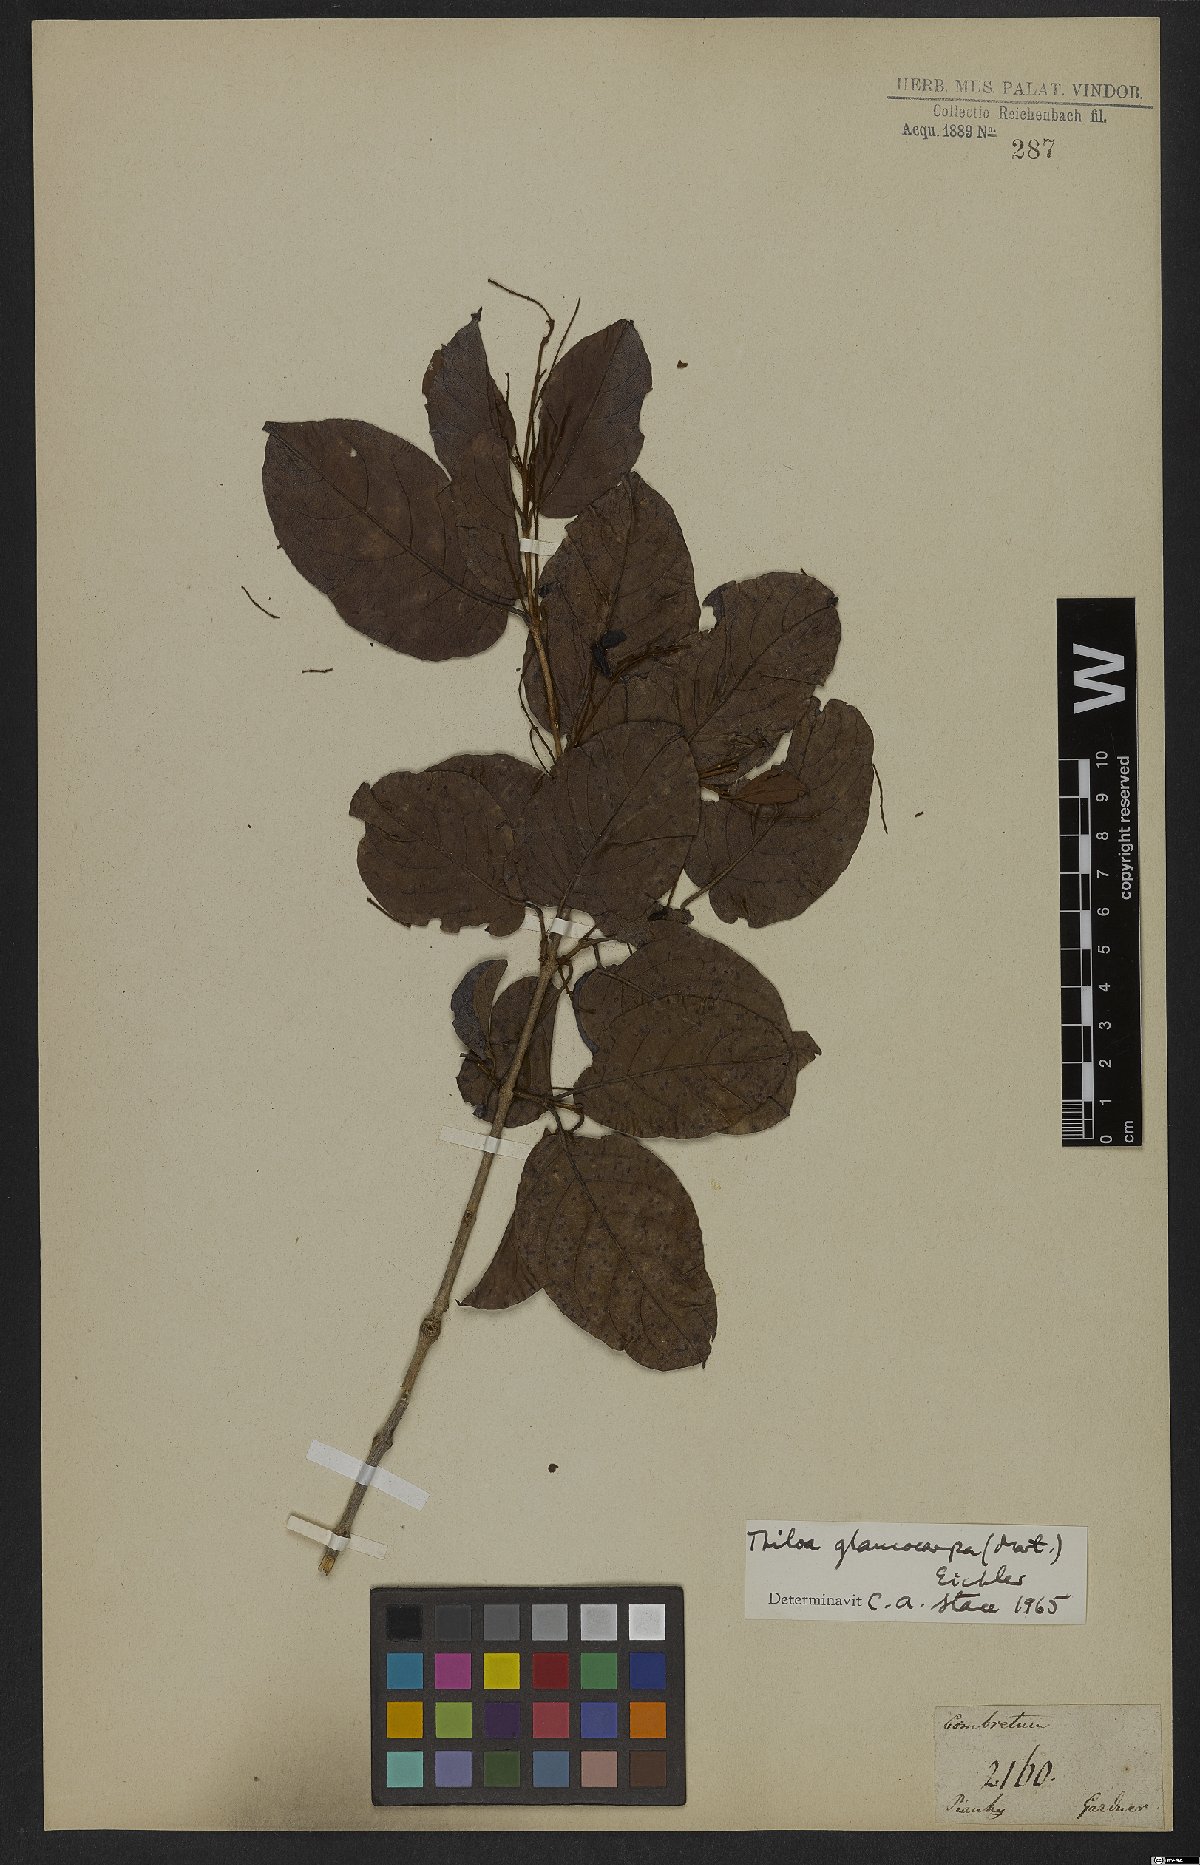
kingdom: Plantae
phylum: Tracheophyta
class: Magnoliopsida
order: Myrtales
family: Combretaceae
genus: Combretum
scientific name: Combretum glaucocarpum
